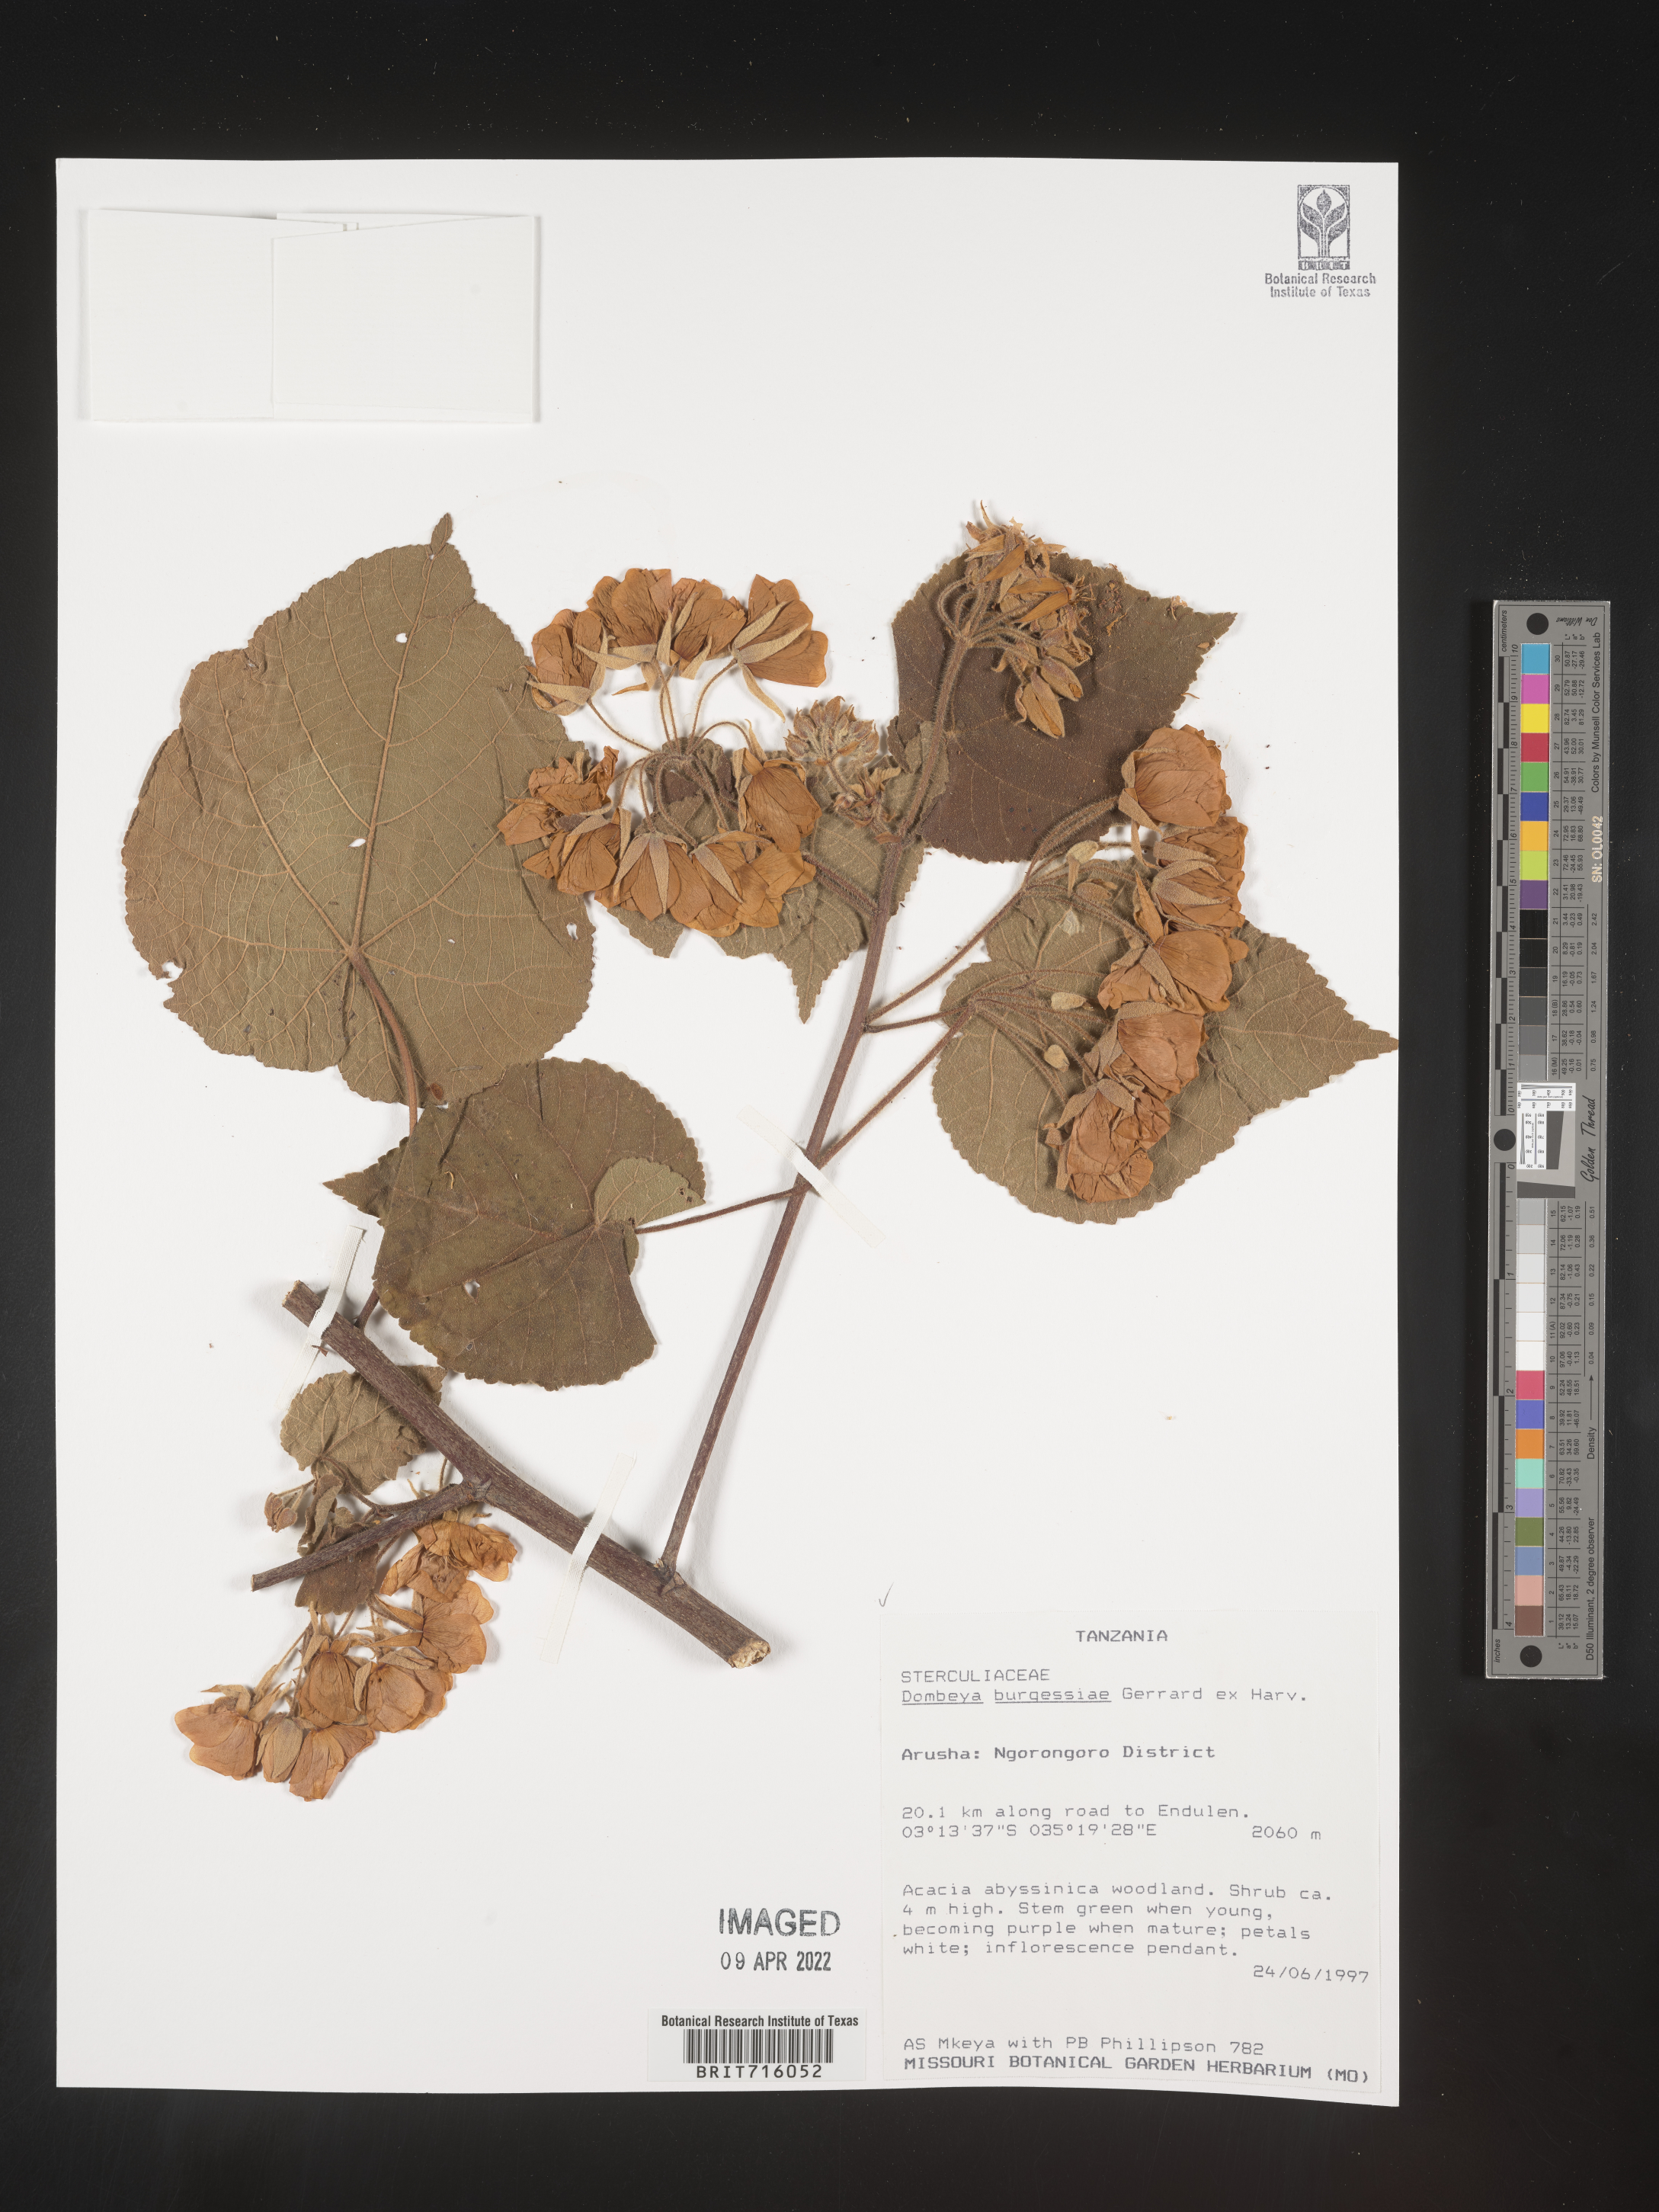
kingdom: Plantae
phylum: Tracheophyta
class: Magnoliopsida
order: Malvales
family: Malvaceae
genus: Dombeya
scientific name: Dombeya
